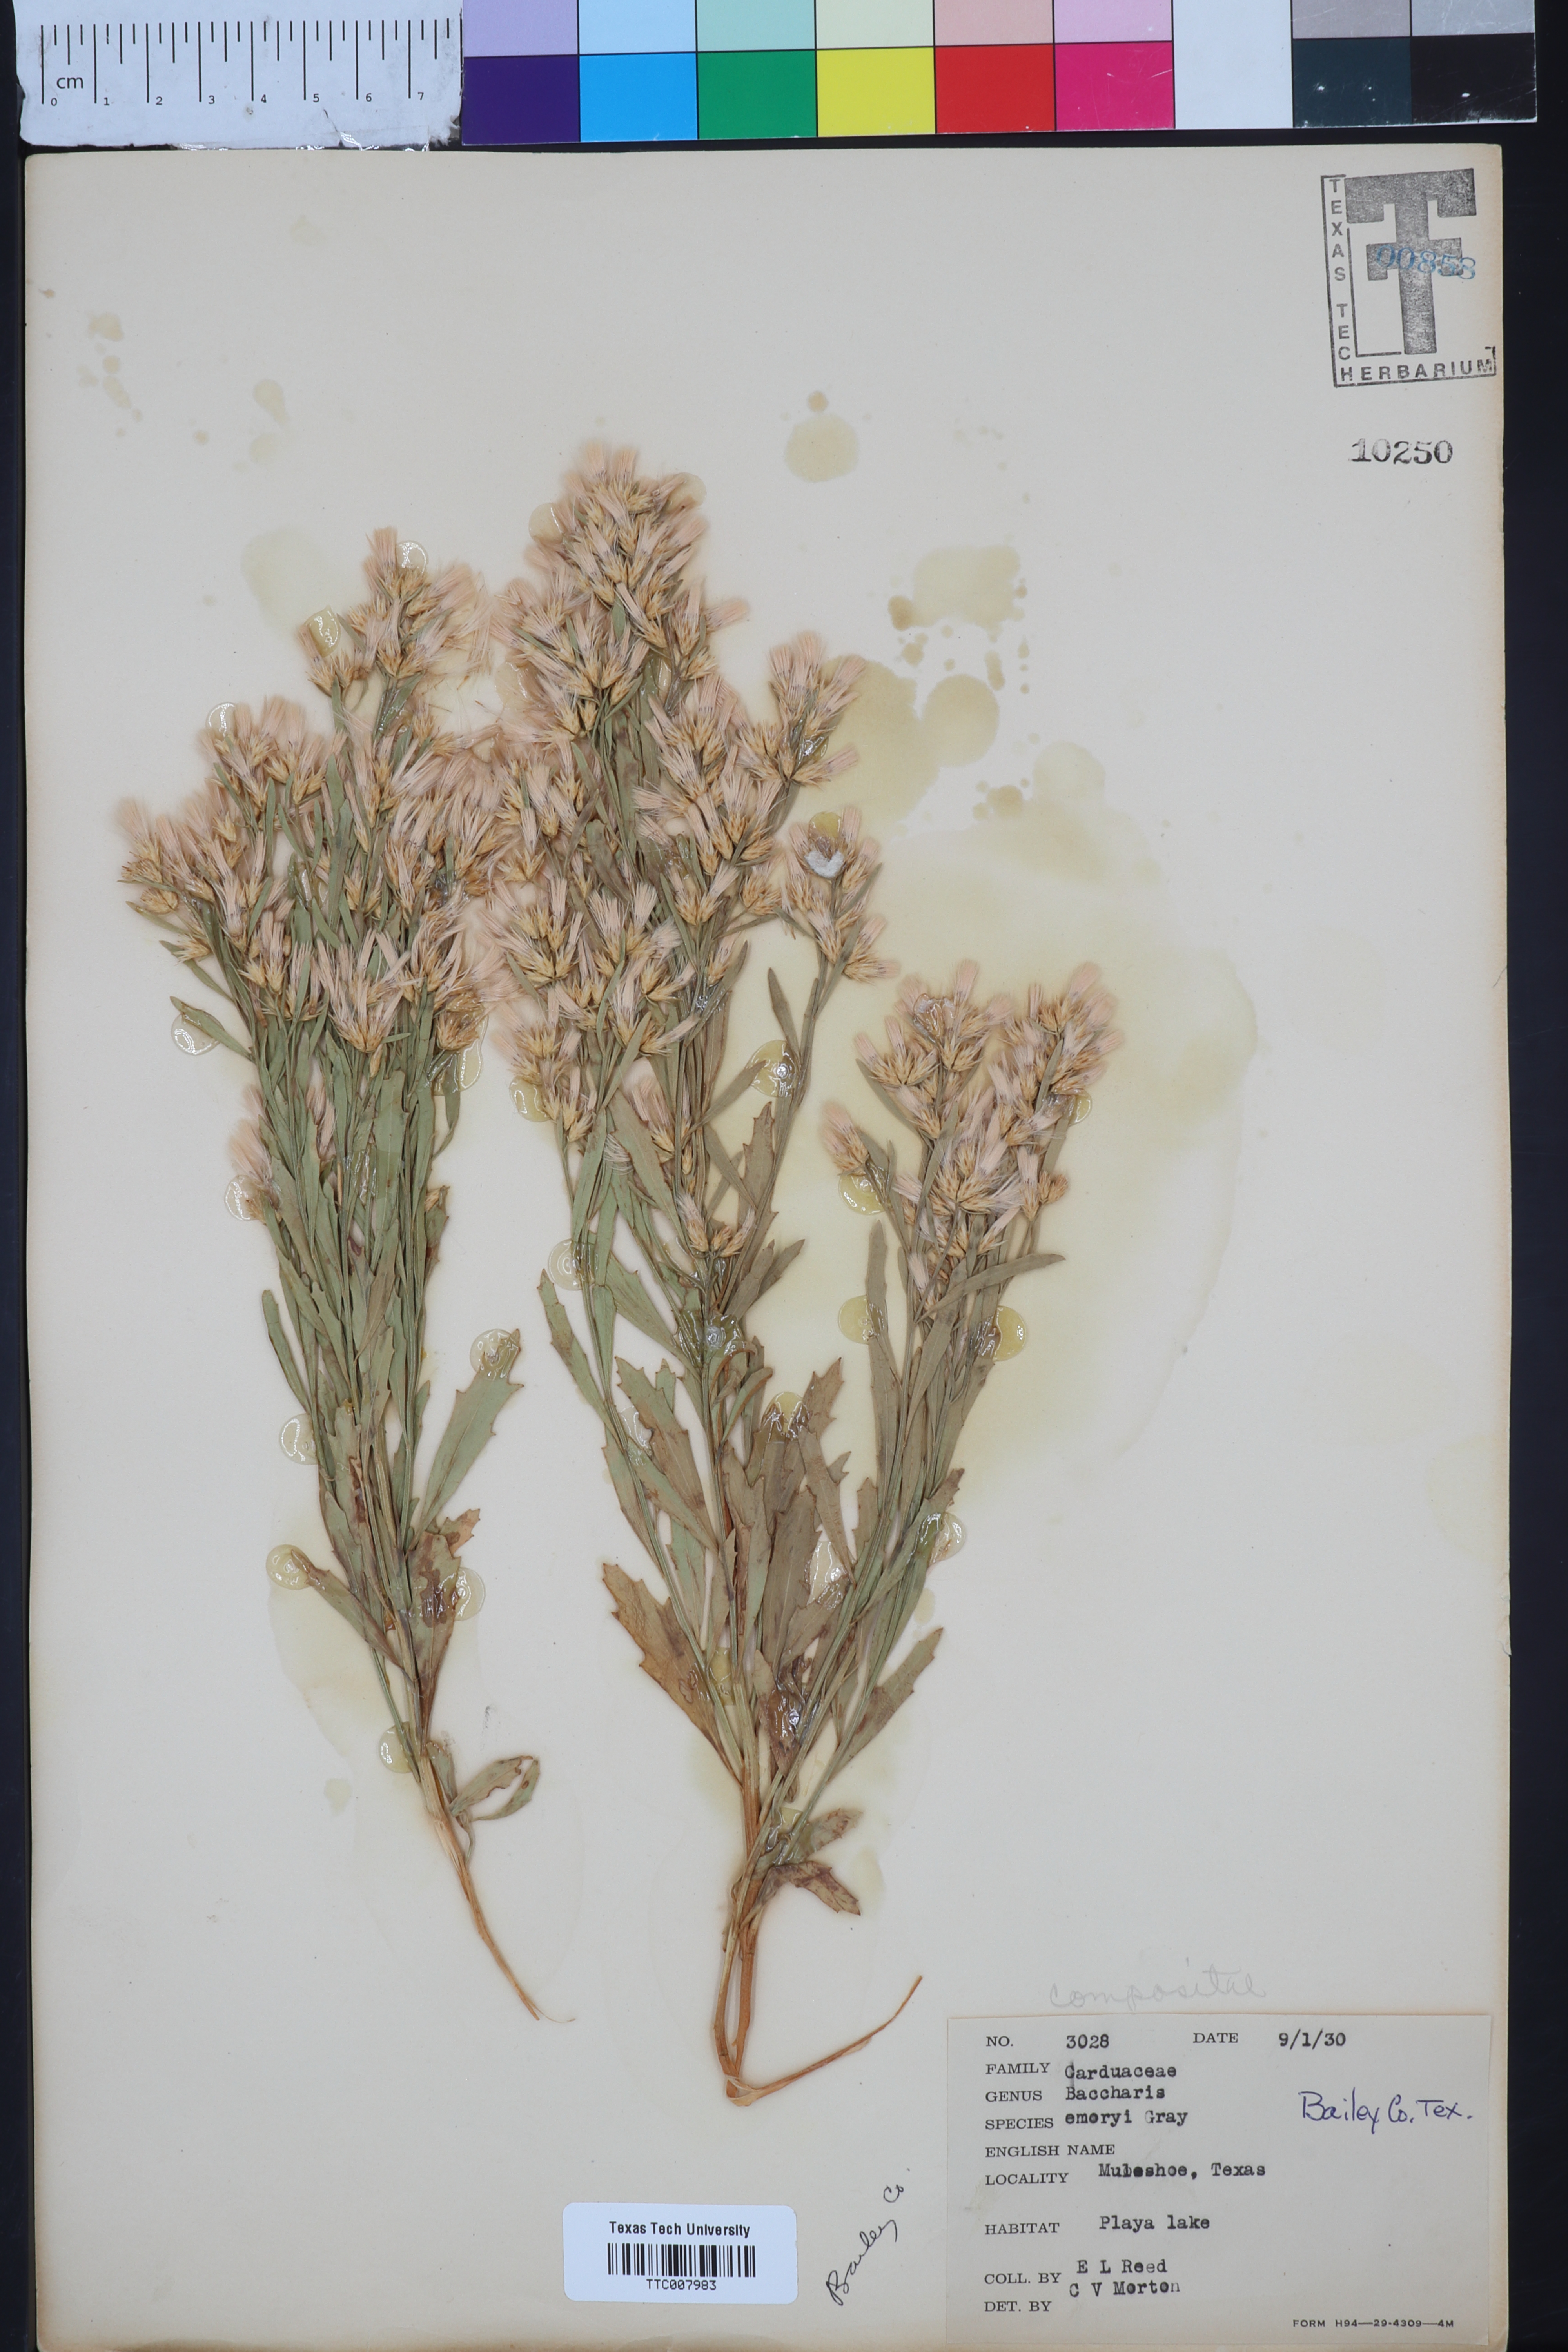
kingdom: Plantae
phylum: Tracheophyta
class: Magnoliopsida
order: Asterales
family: Asteraceae
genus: Baccharis
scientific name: Baccharis salicina
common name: Willow baccharis
